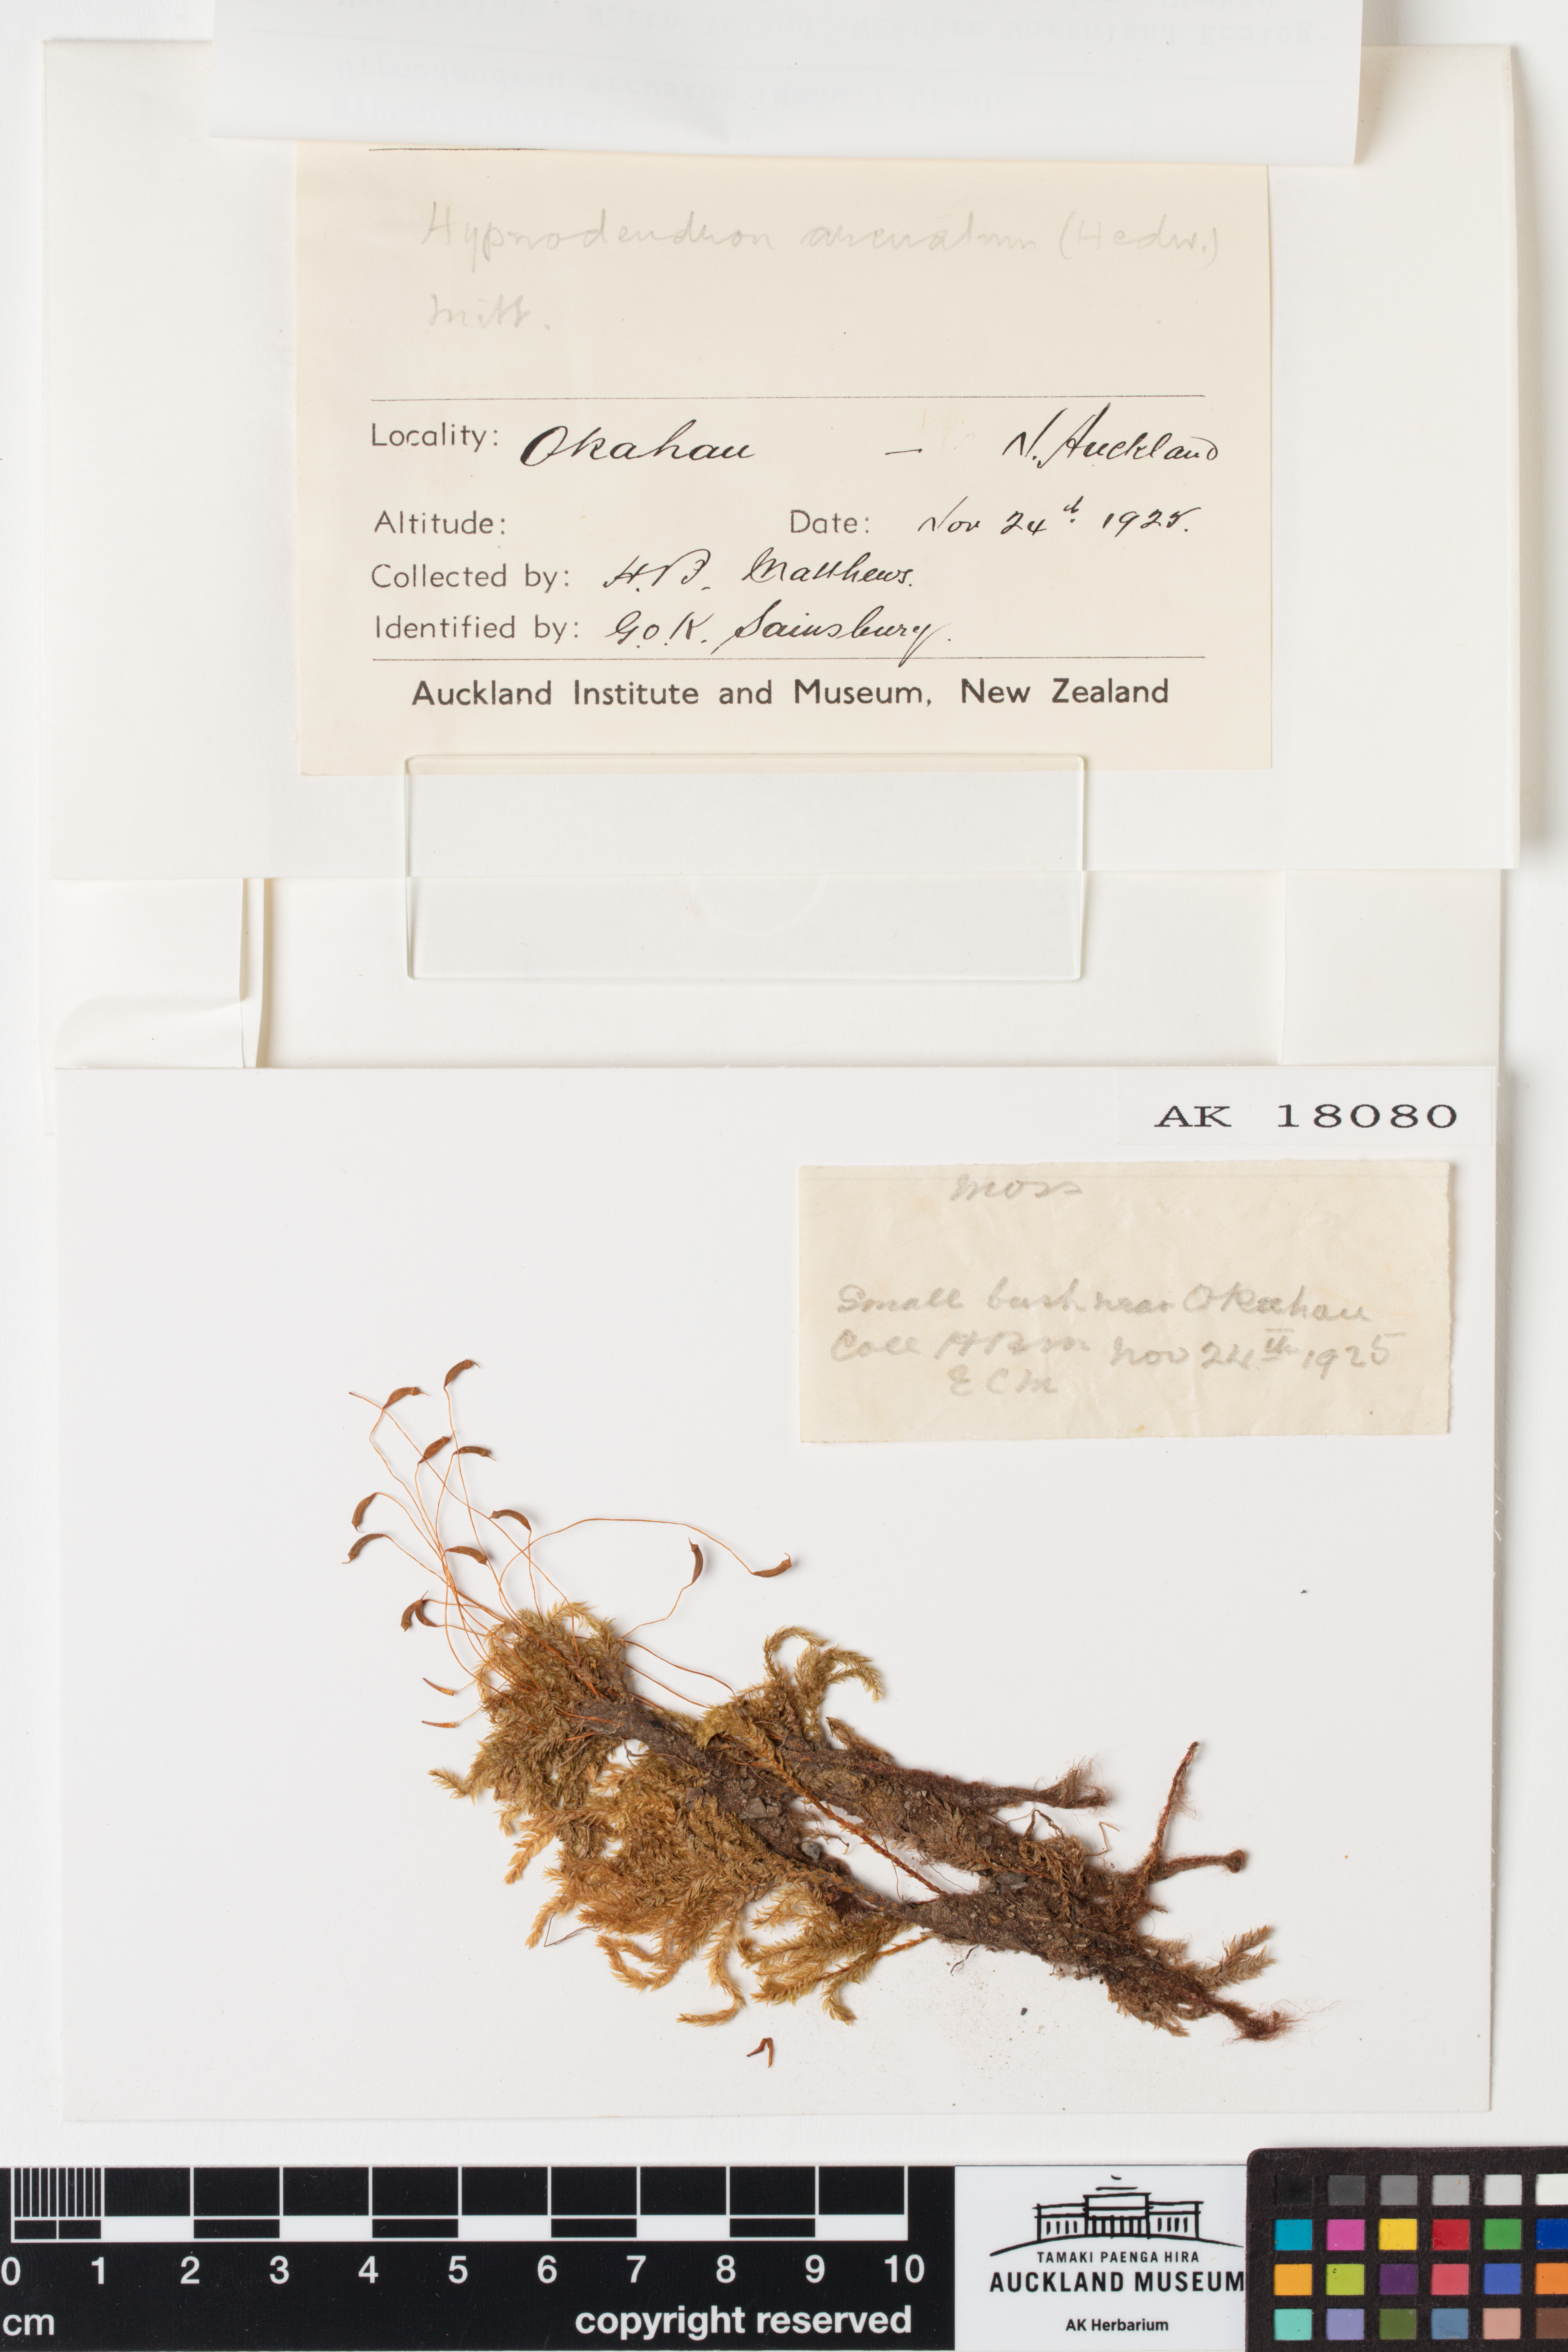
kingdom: Plantae
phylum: Bryophyta
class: Bryopsida
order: Hypnodendrales
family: Spiridentaceae
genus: Hypnodendron
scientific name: Hypnodendron arcuatum
